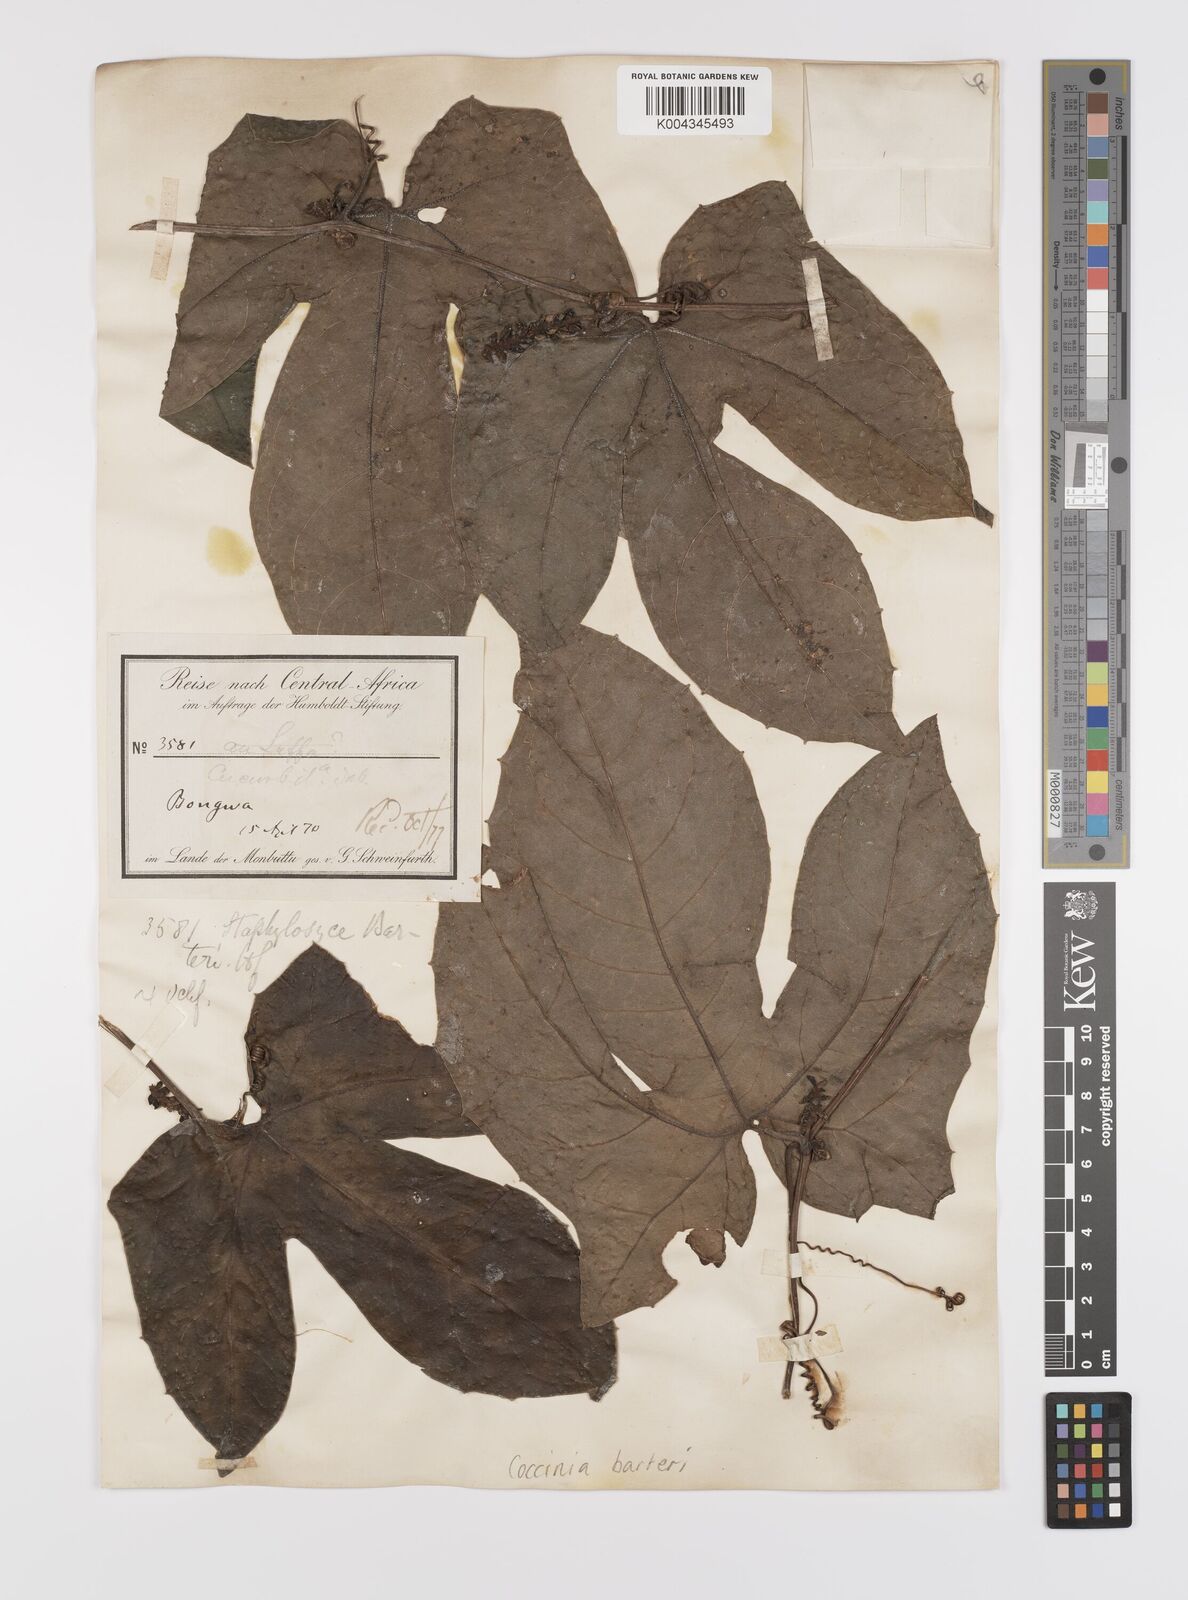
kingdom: Plantae
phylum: Tracheophyta
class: Magnoliopsida
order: Cucurbitales
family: Cucurbitaceae
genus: Coccinia
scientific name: Coccinia barteri
